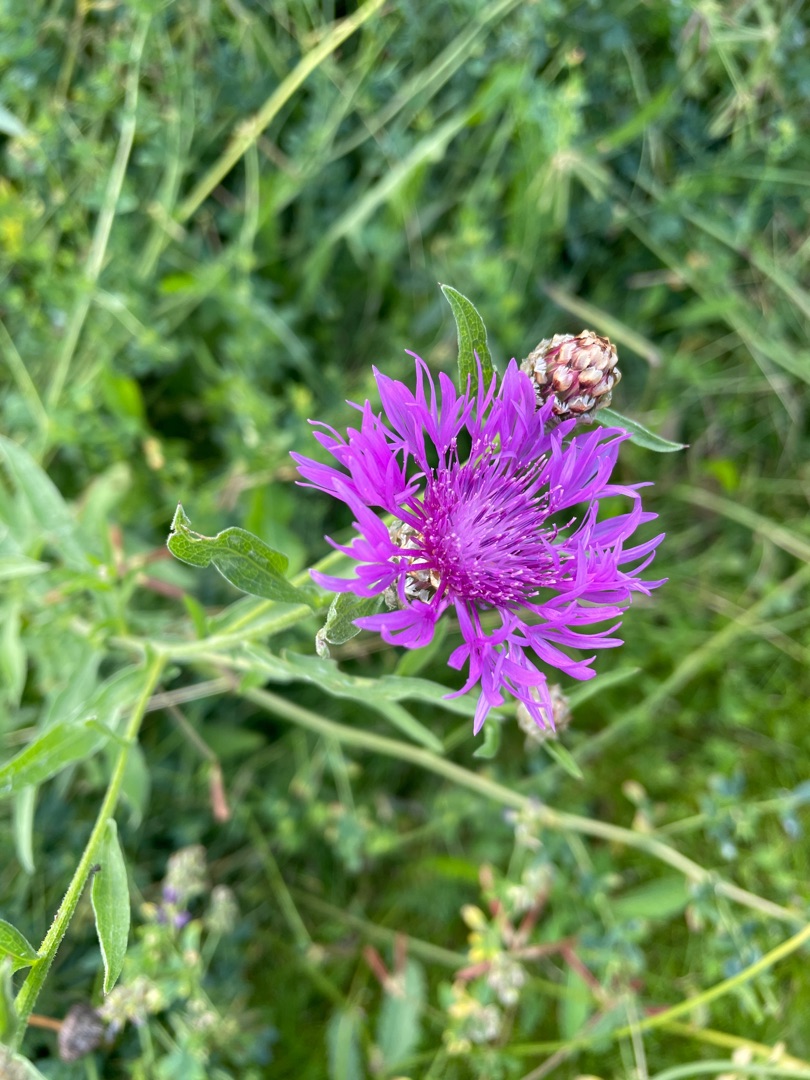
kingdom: Plantae
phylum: Tracheophyta
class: Magnoliopsida
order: Asterales
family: Asteraceae
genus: Centaurea
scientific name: Centaurea jacea
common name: Almindelig knopurt
